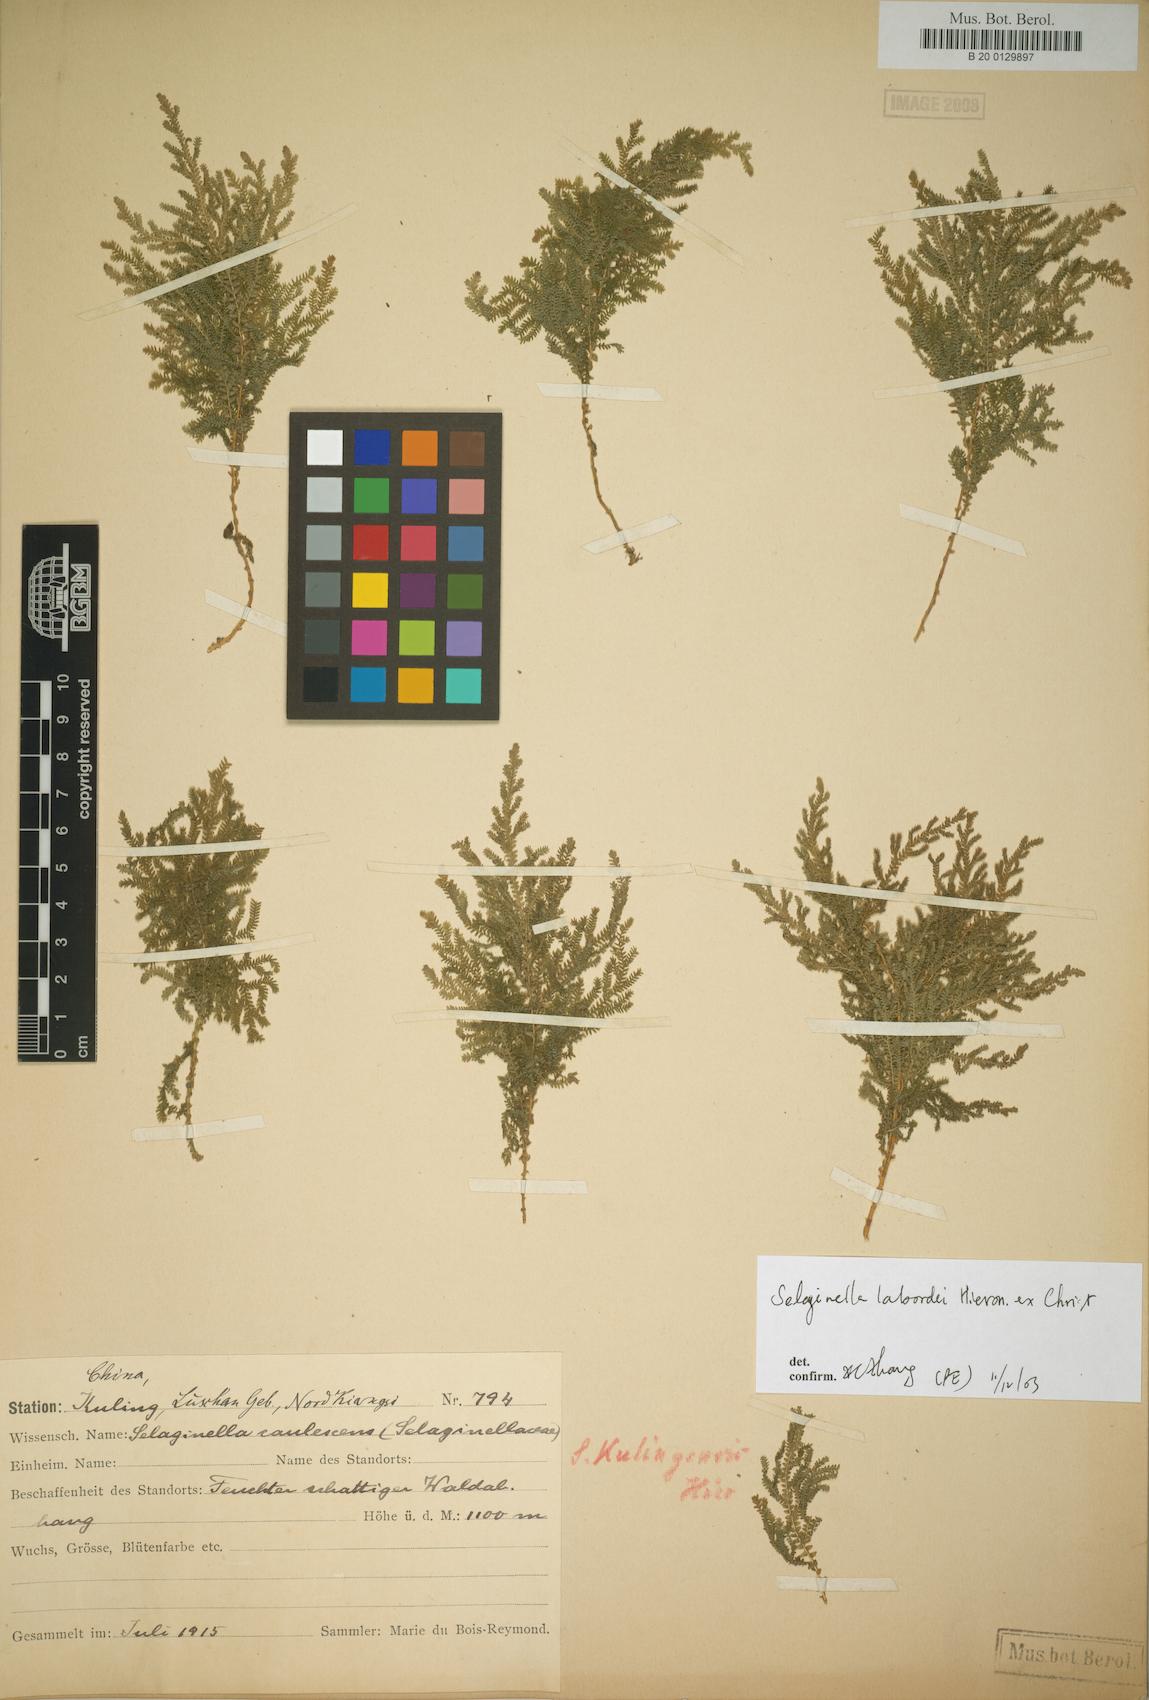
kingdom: Plantae
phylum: Tracheophyta
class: Lycopodiopsida
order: Selaginellales
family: Selaginellaceae
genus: Selaginella
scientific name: Selaginella
